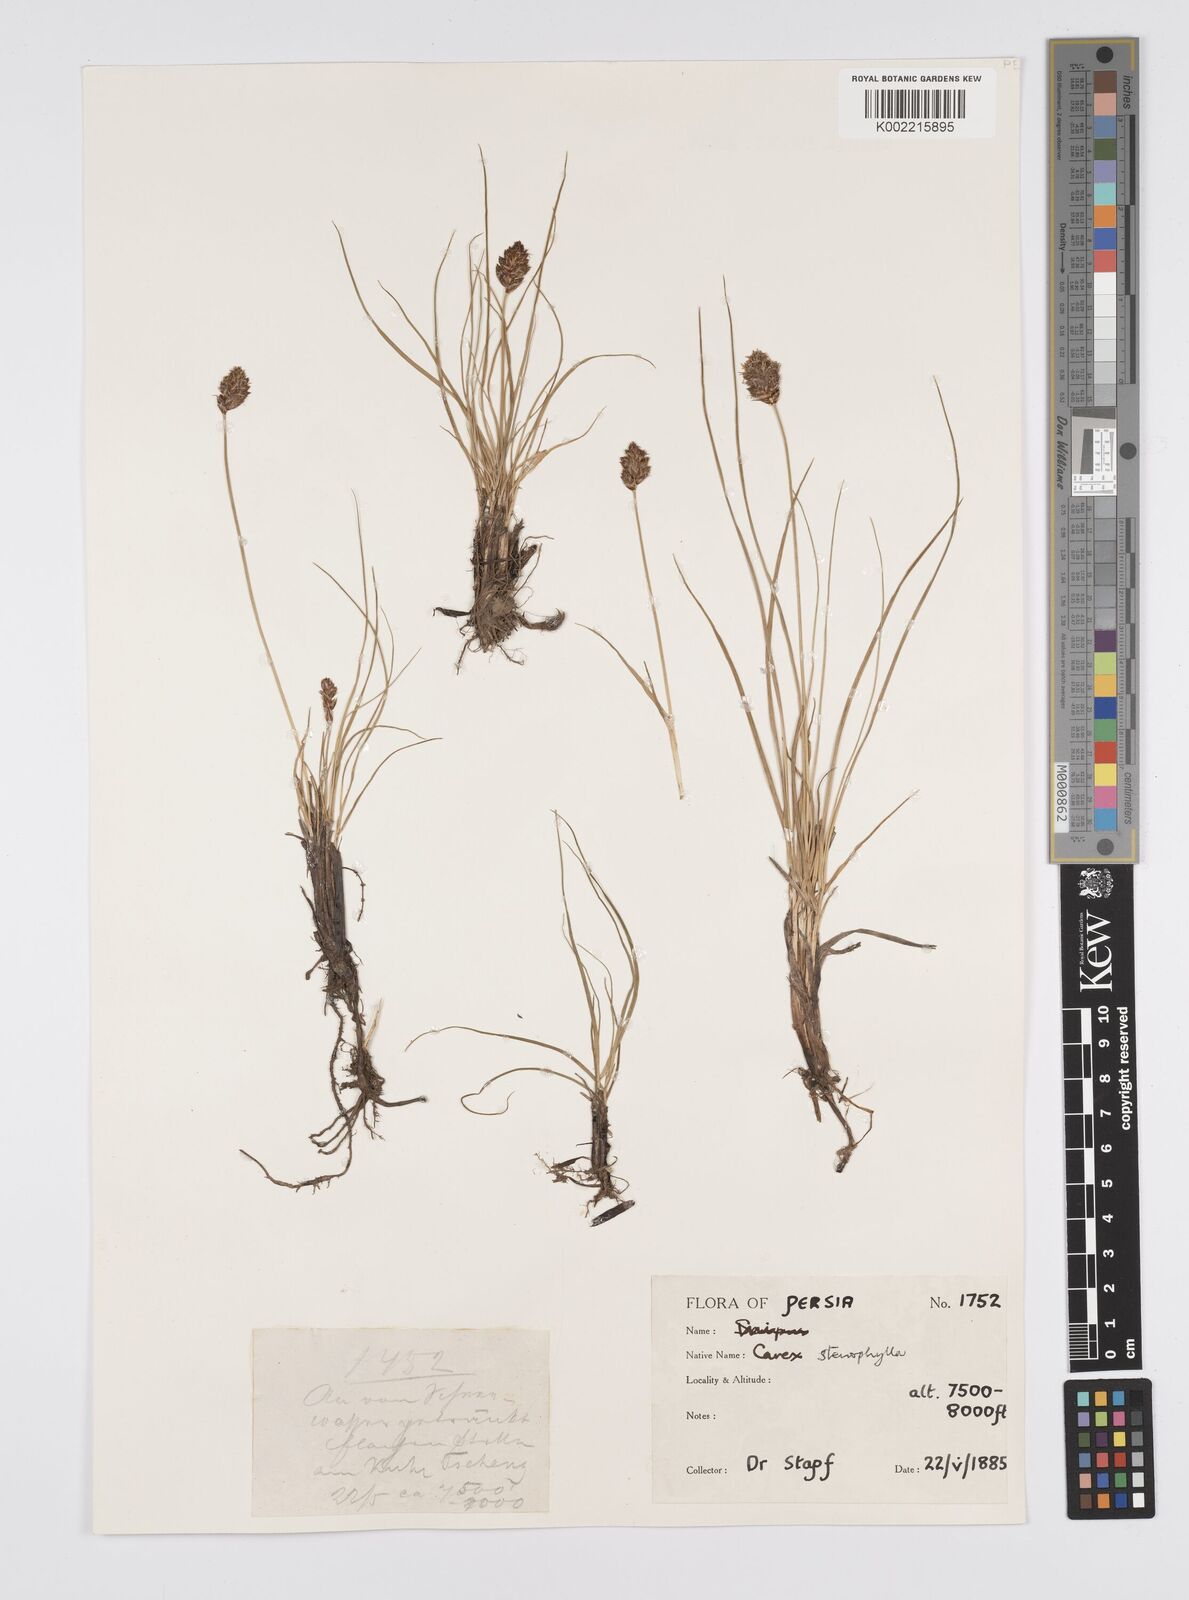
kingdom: Plantae
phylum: Tracheophyta
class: Liliopsida
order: Poales
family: Cyperaceae
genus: Carex
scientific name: Carex stenophylla
